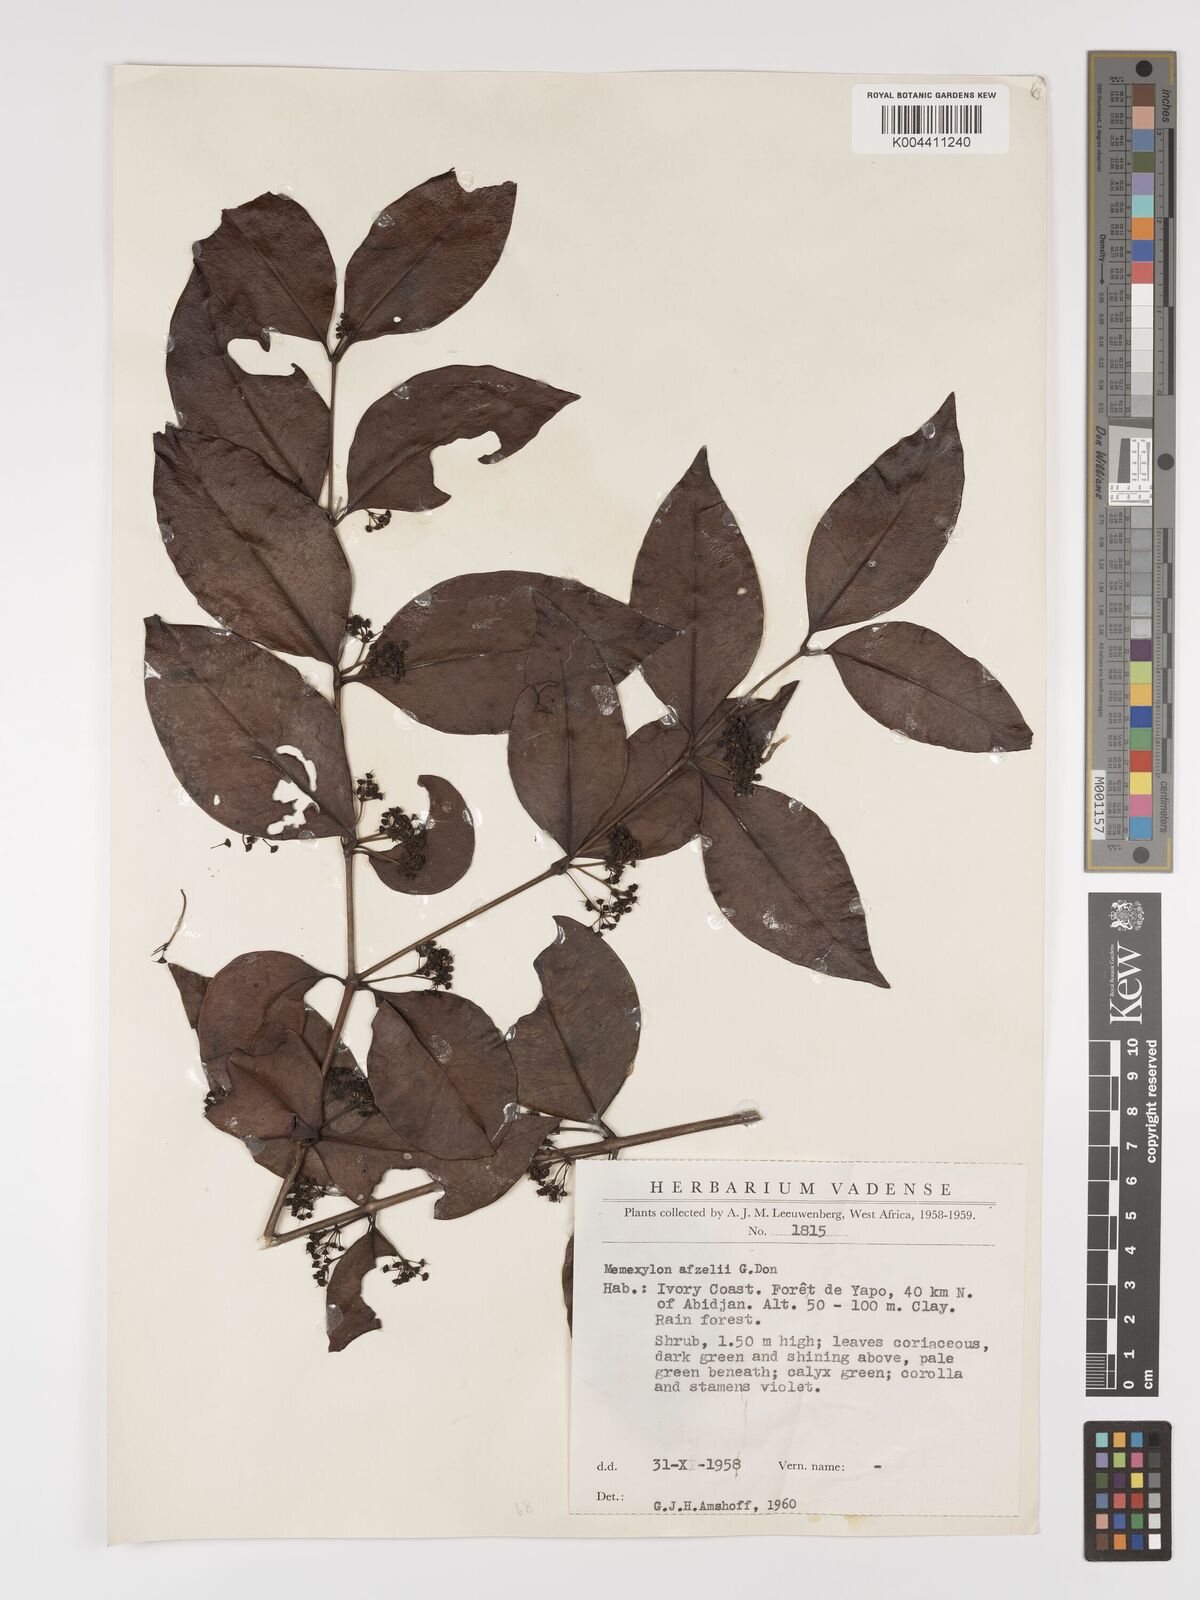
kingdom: Plantae
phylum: Tracheophyta
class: Magnoliopsida
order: Myrtales
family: Melastomataceae
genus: Memecylon
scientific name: Memecylon afzelii
